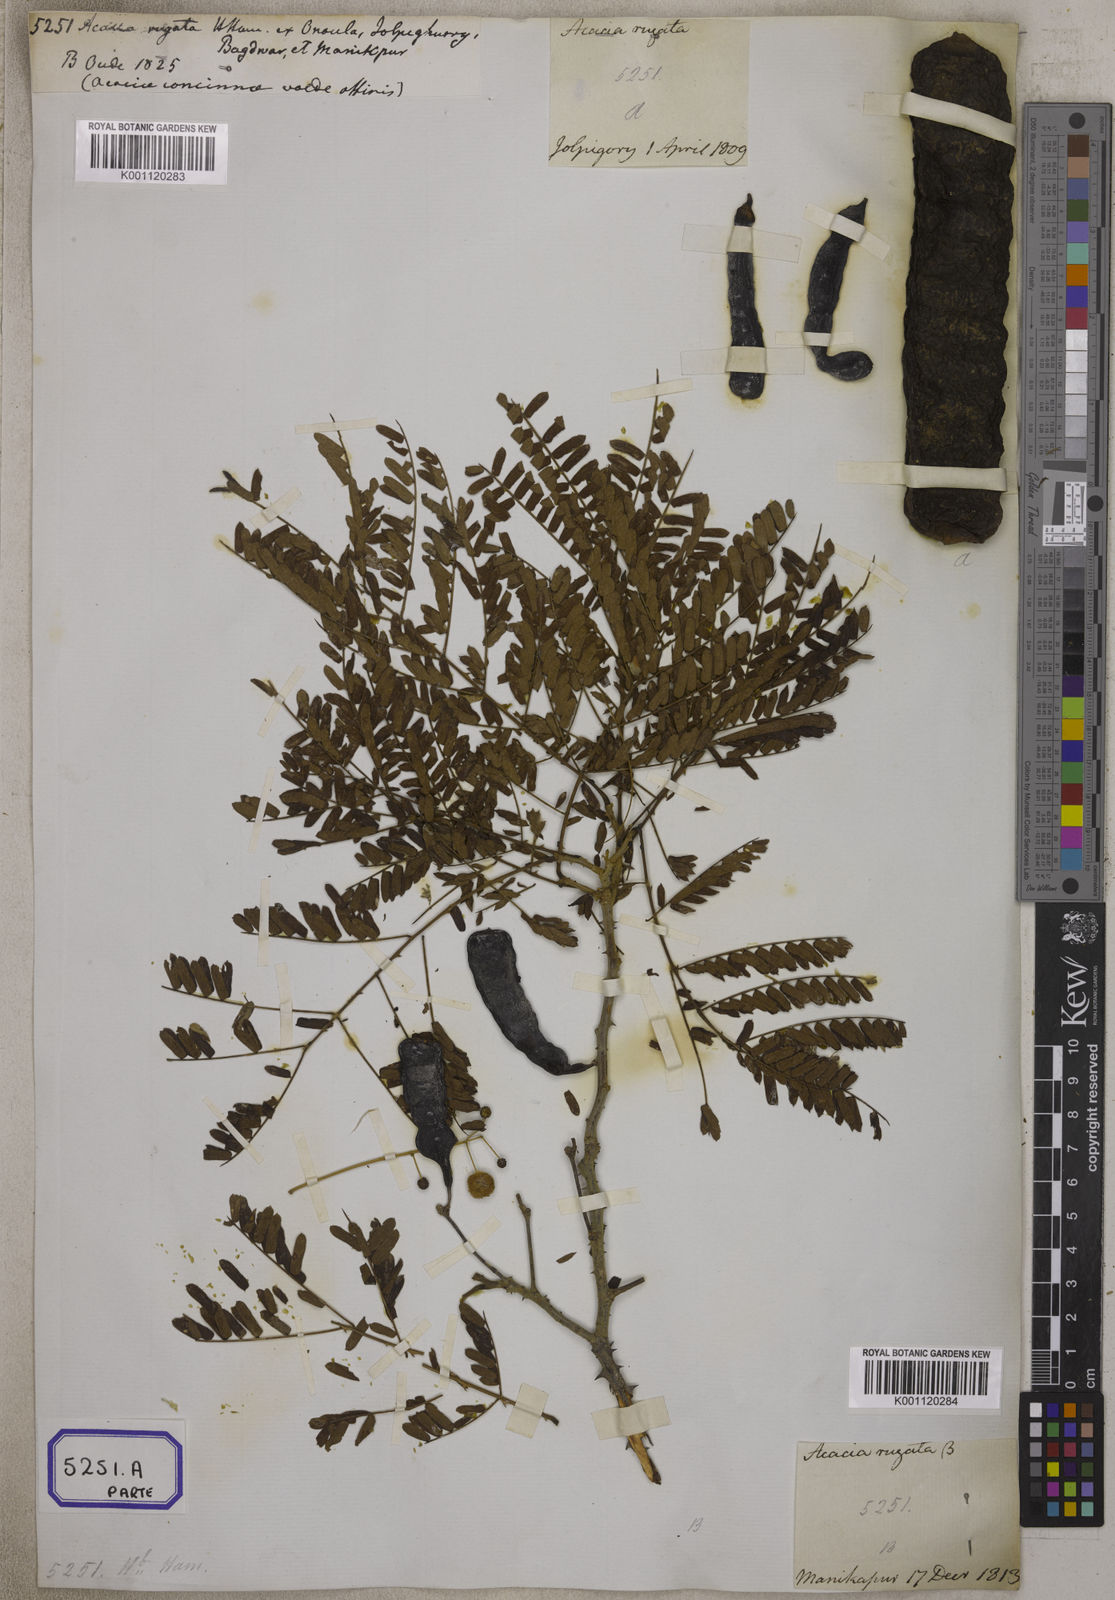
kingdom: Plantae
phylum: Tracheophyta
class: Magnoliopsida
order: Fabales
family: Fabaceae
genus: Acacia
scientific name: Acacia
